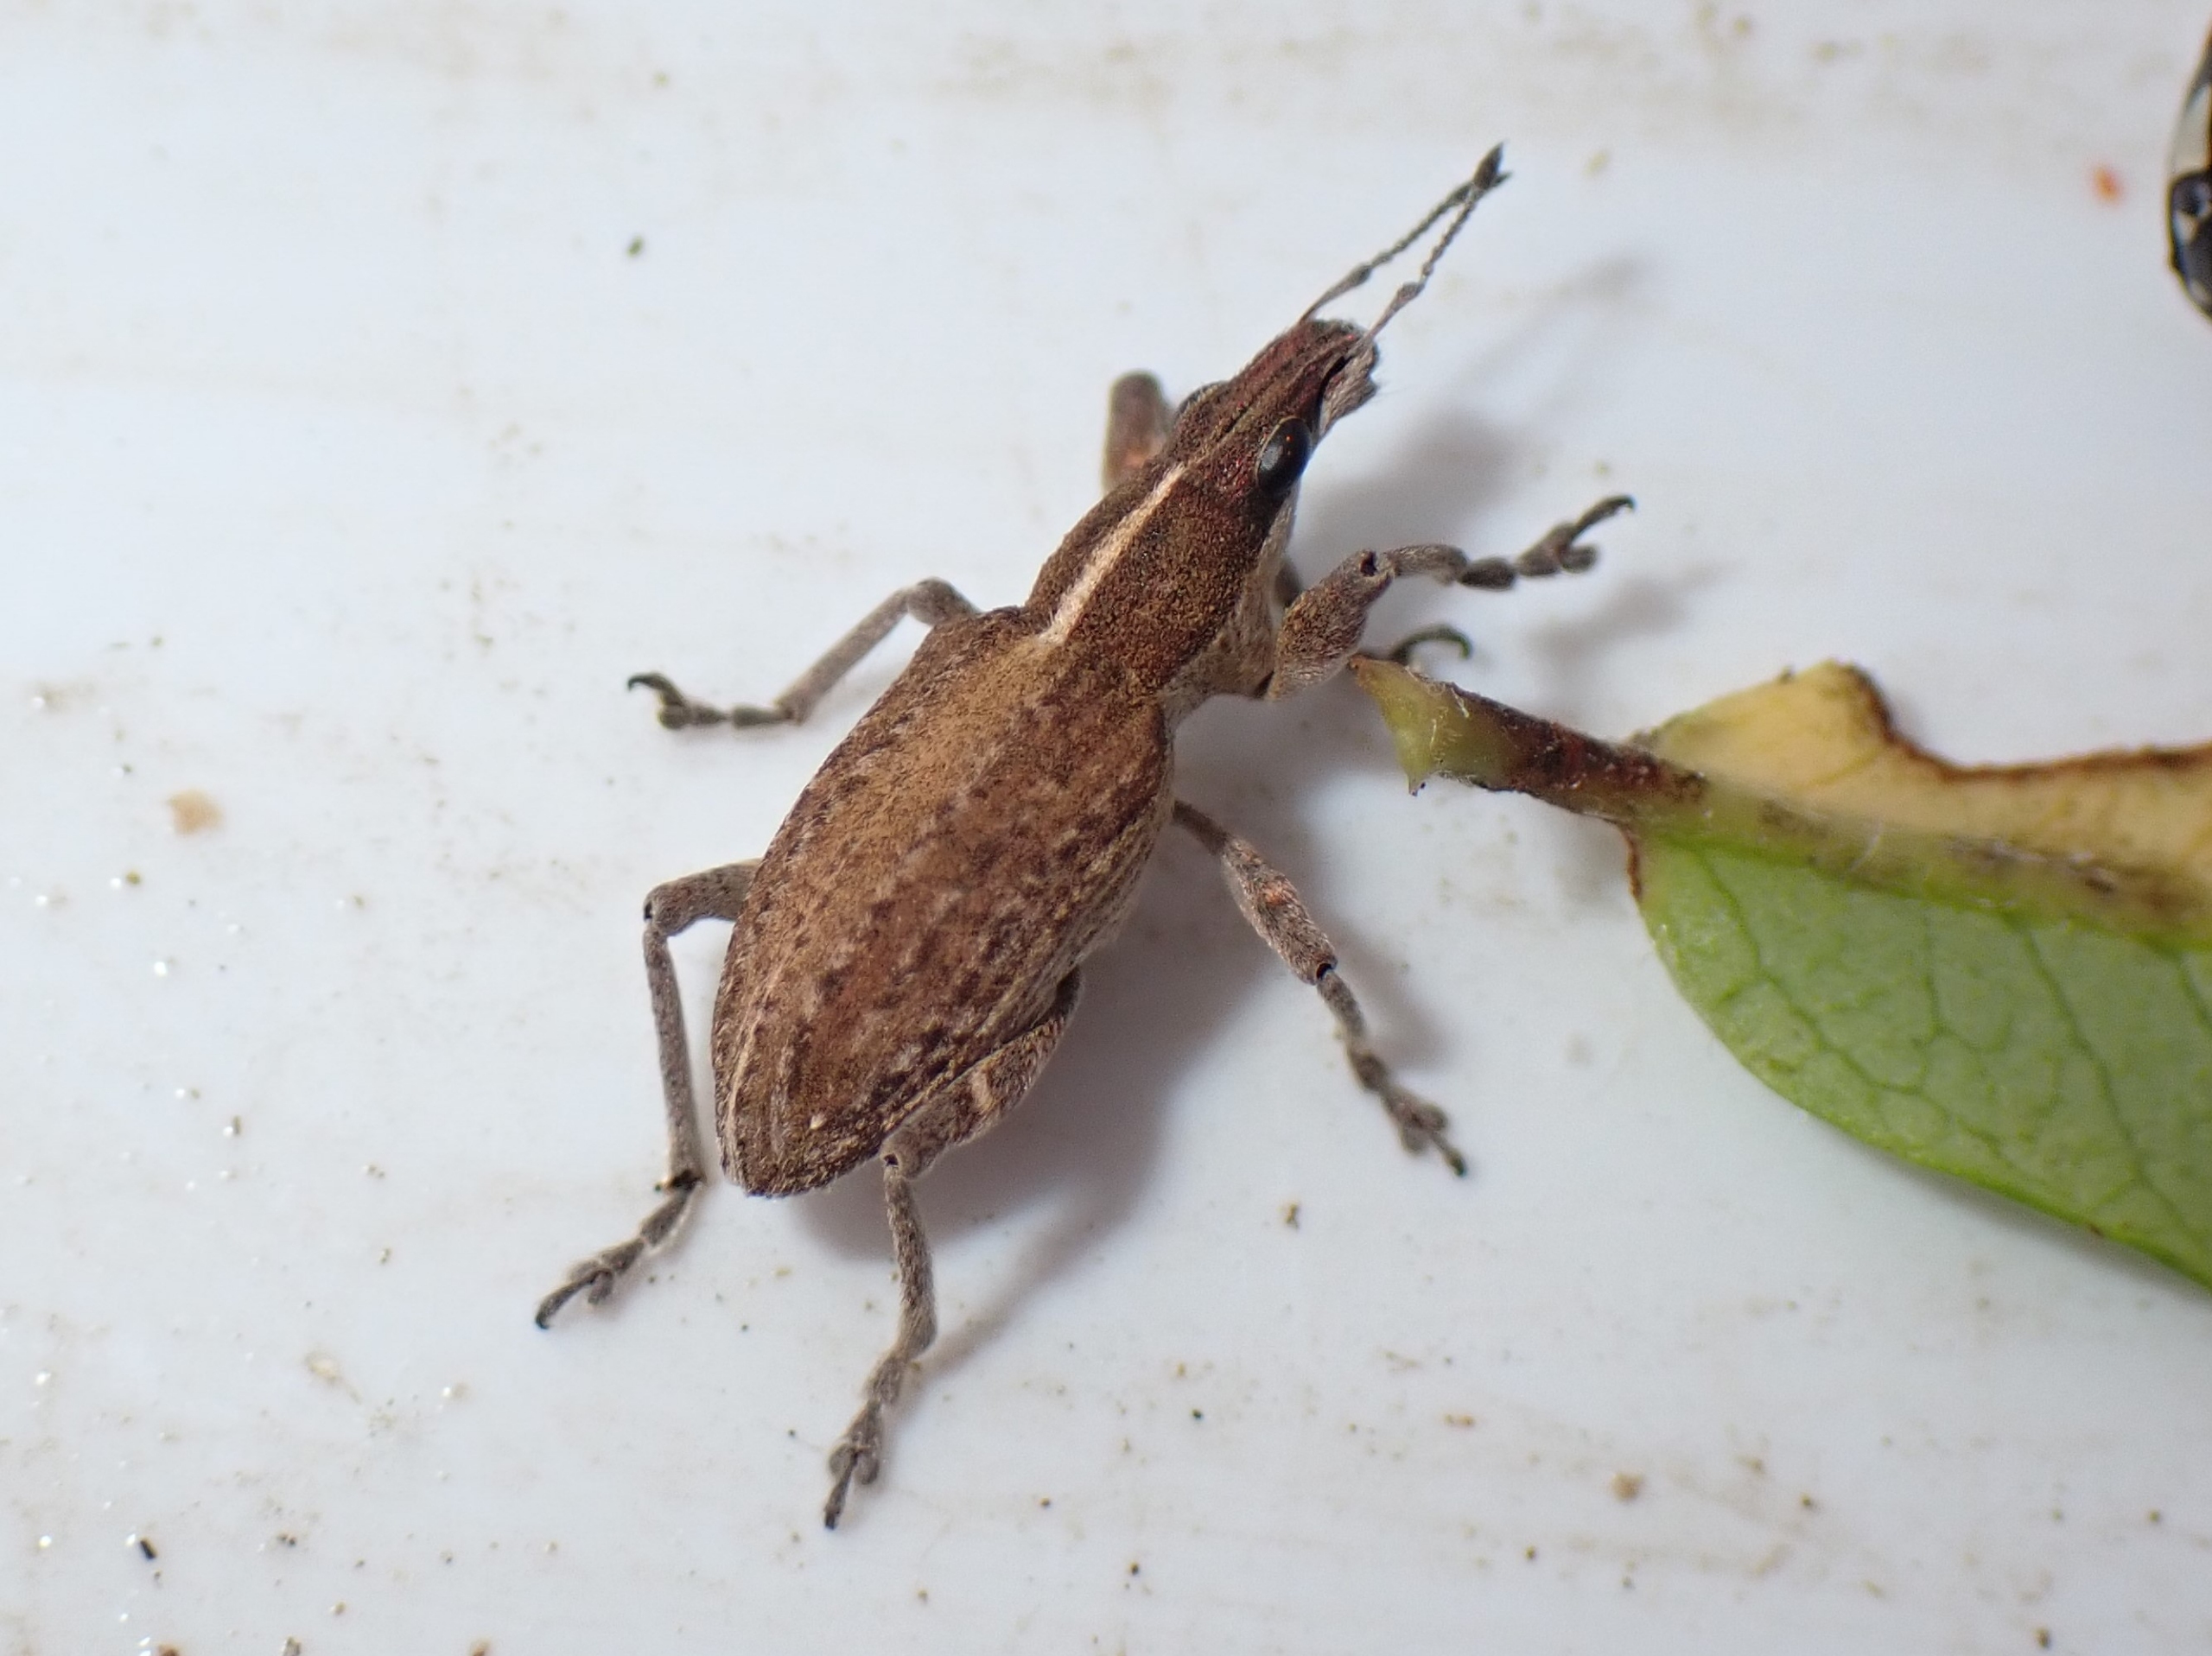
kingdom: Animalia
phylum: Arthropoda
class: Insecta
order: Coleoptera
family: Curculionidae
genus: Charagmus
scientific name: Charagmus gressorius
